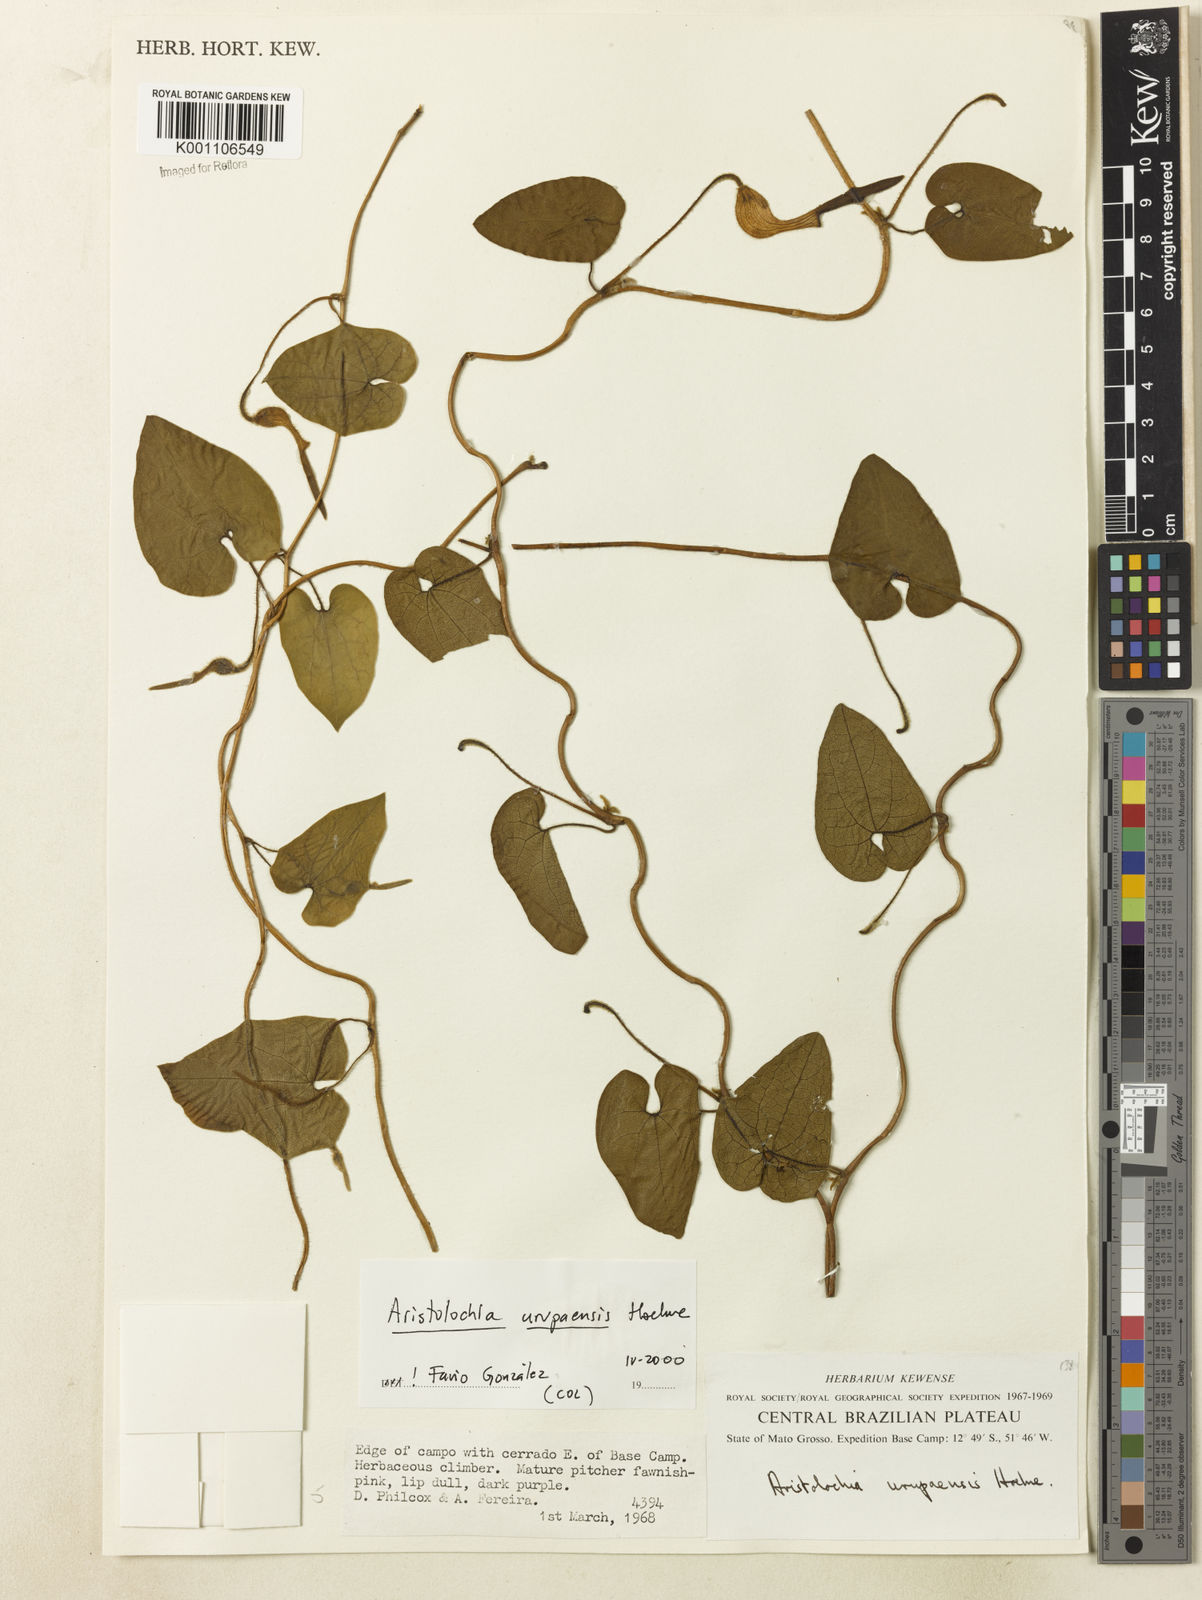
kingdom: Plantae
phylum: Tracheophyta
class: Magnoliopsida
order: Piperales
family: Aristolochiaceae
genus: Aristolochia
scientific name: Aristolochia urupaensis
